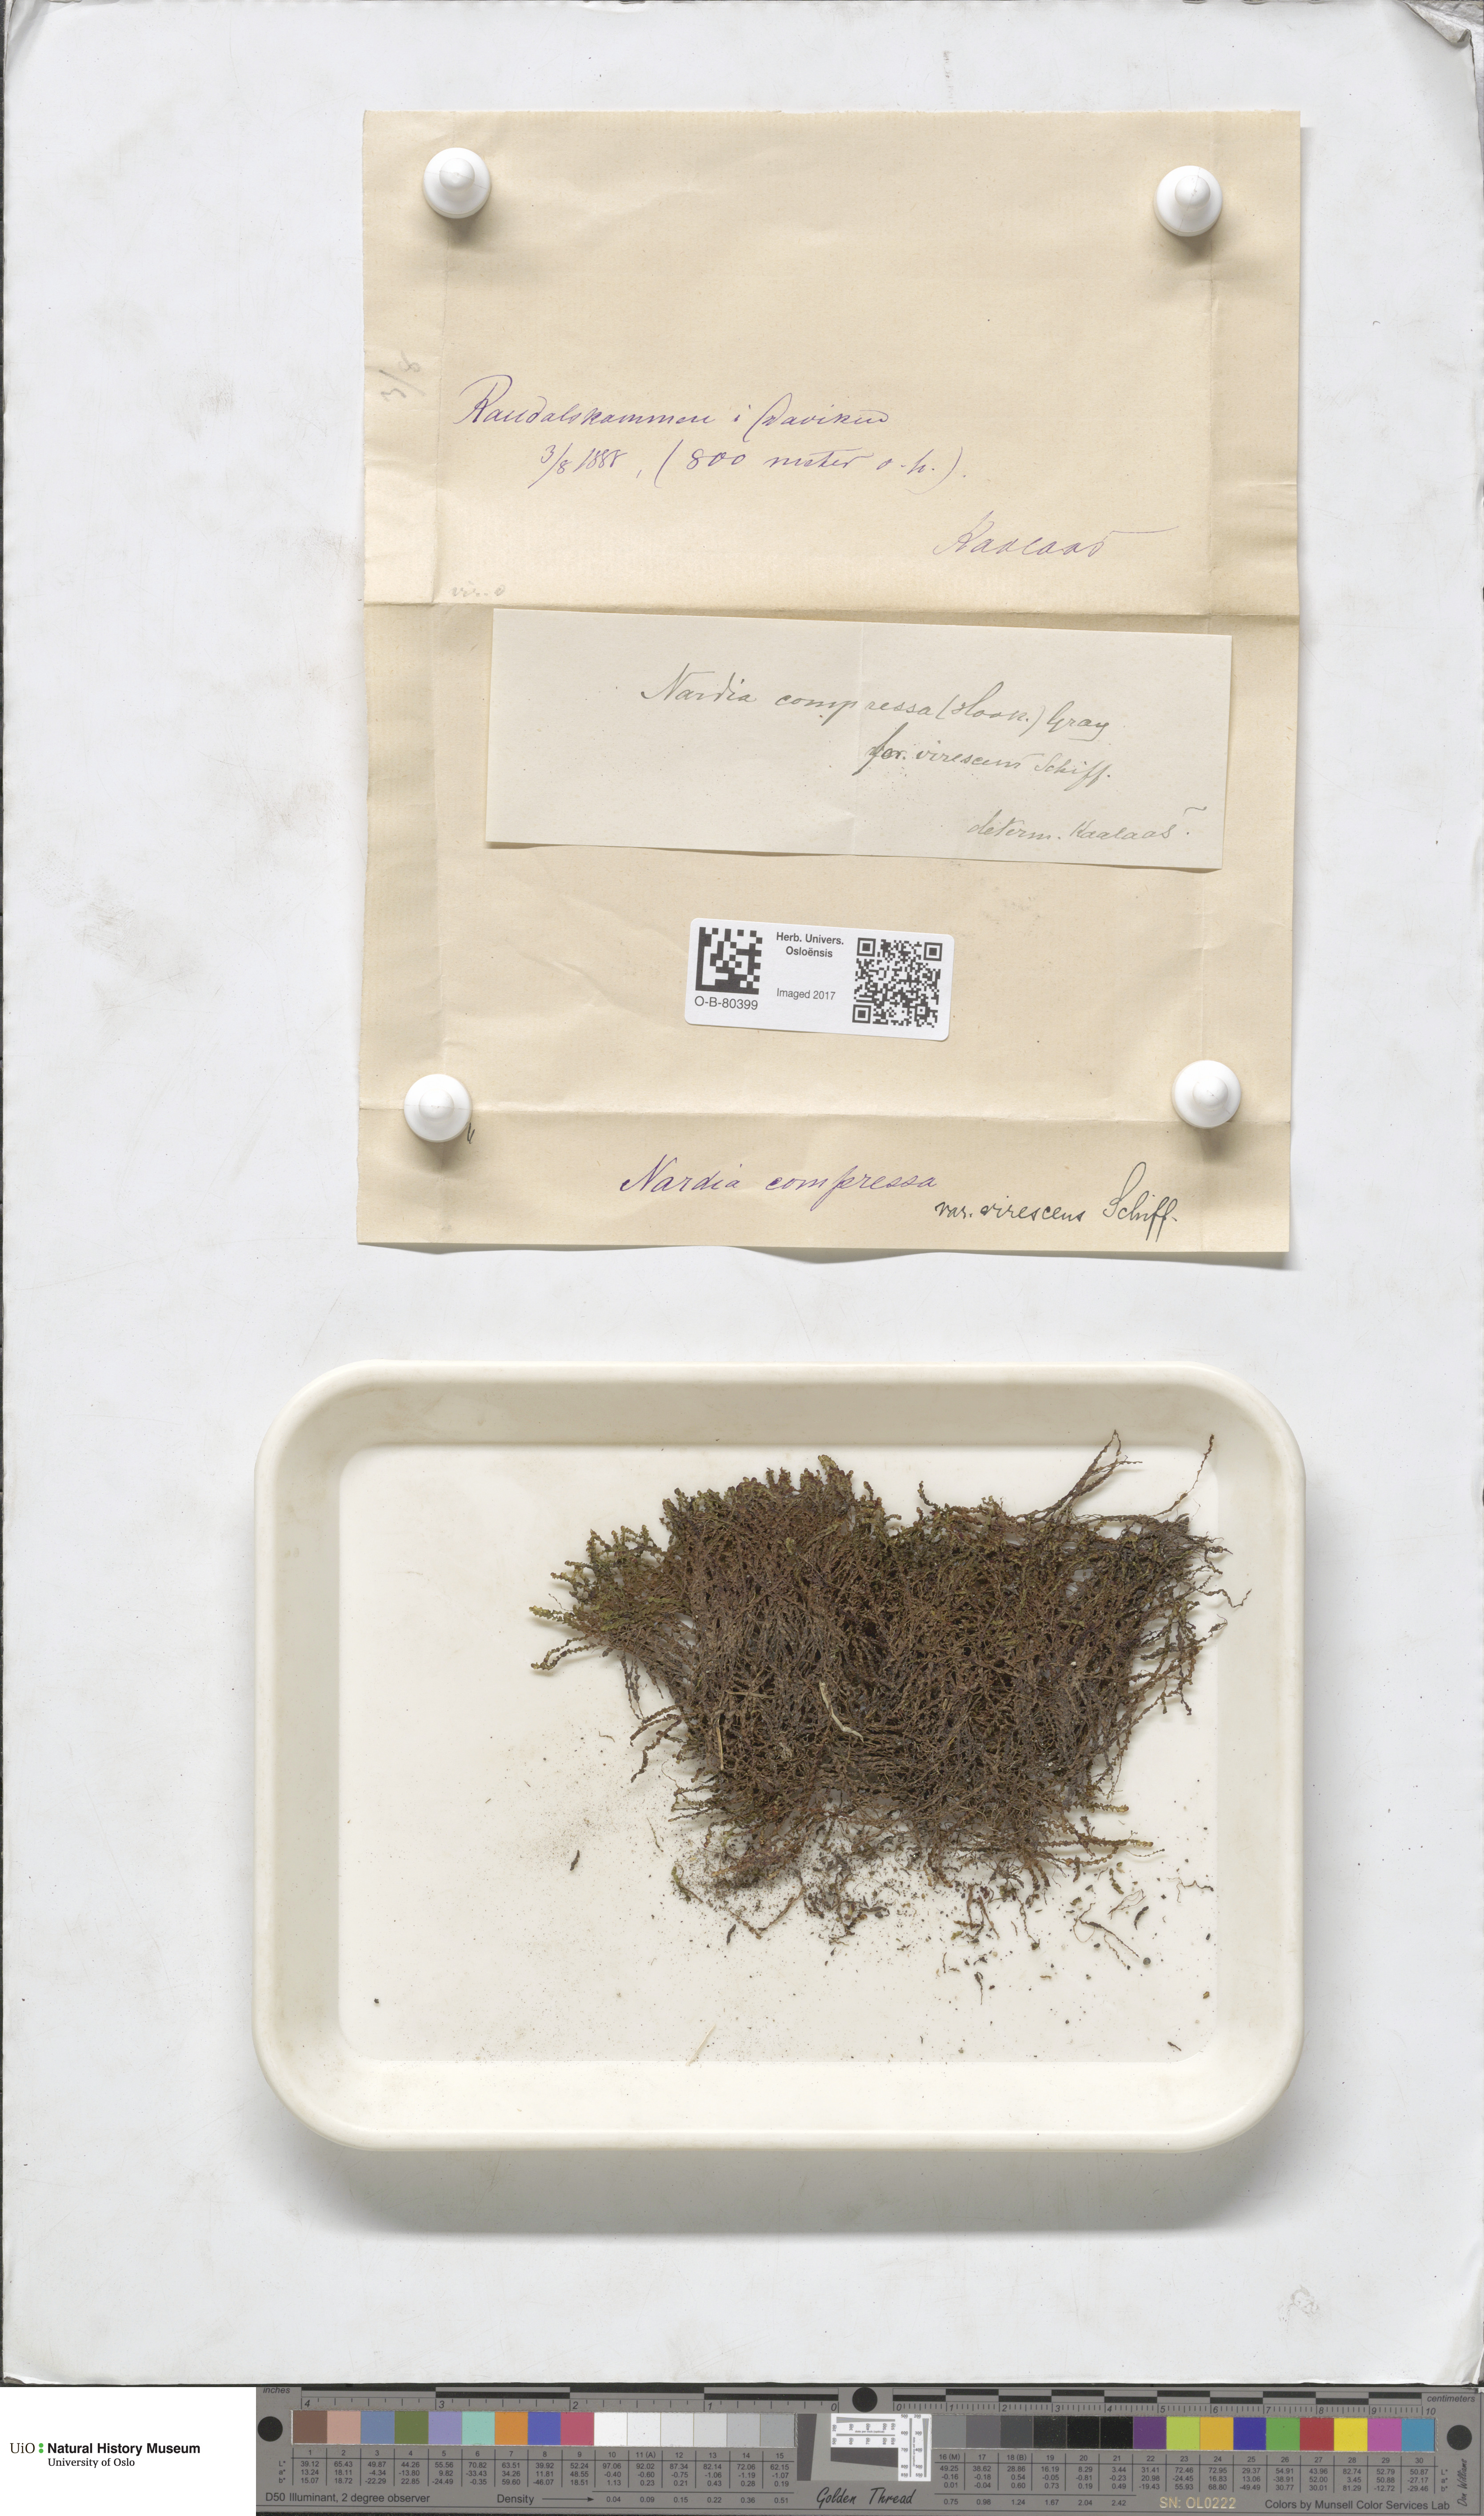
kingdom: Plantae
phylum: Marchantiophyta
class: Jungermanniopsida
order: Jungermanniales
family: Gymnomitriaceae
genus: Nardia
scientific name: Nardia compressa
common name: Compressed flapwort
